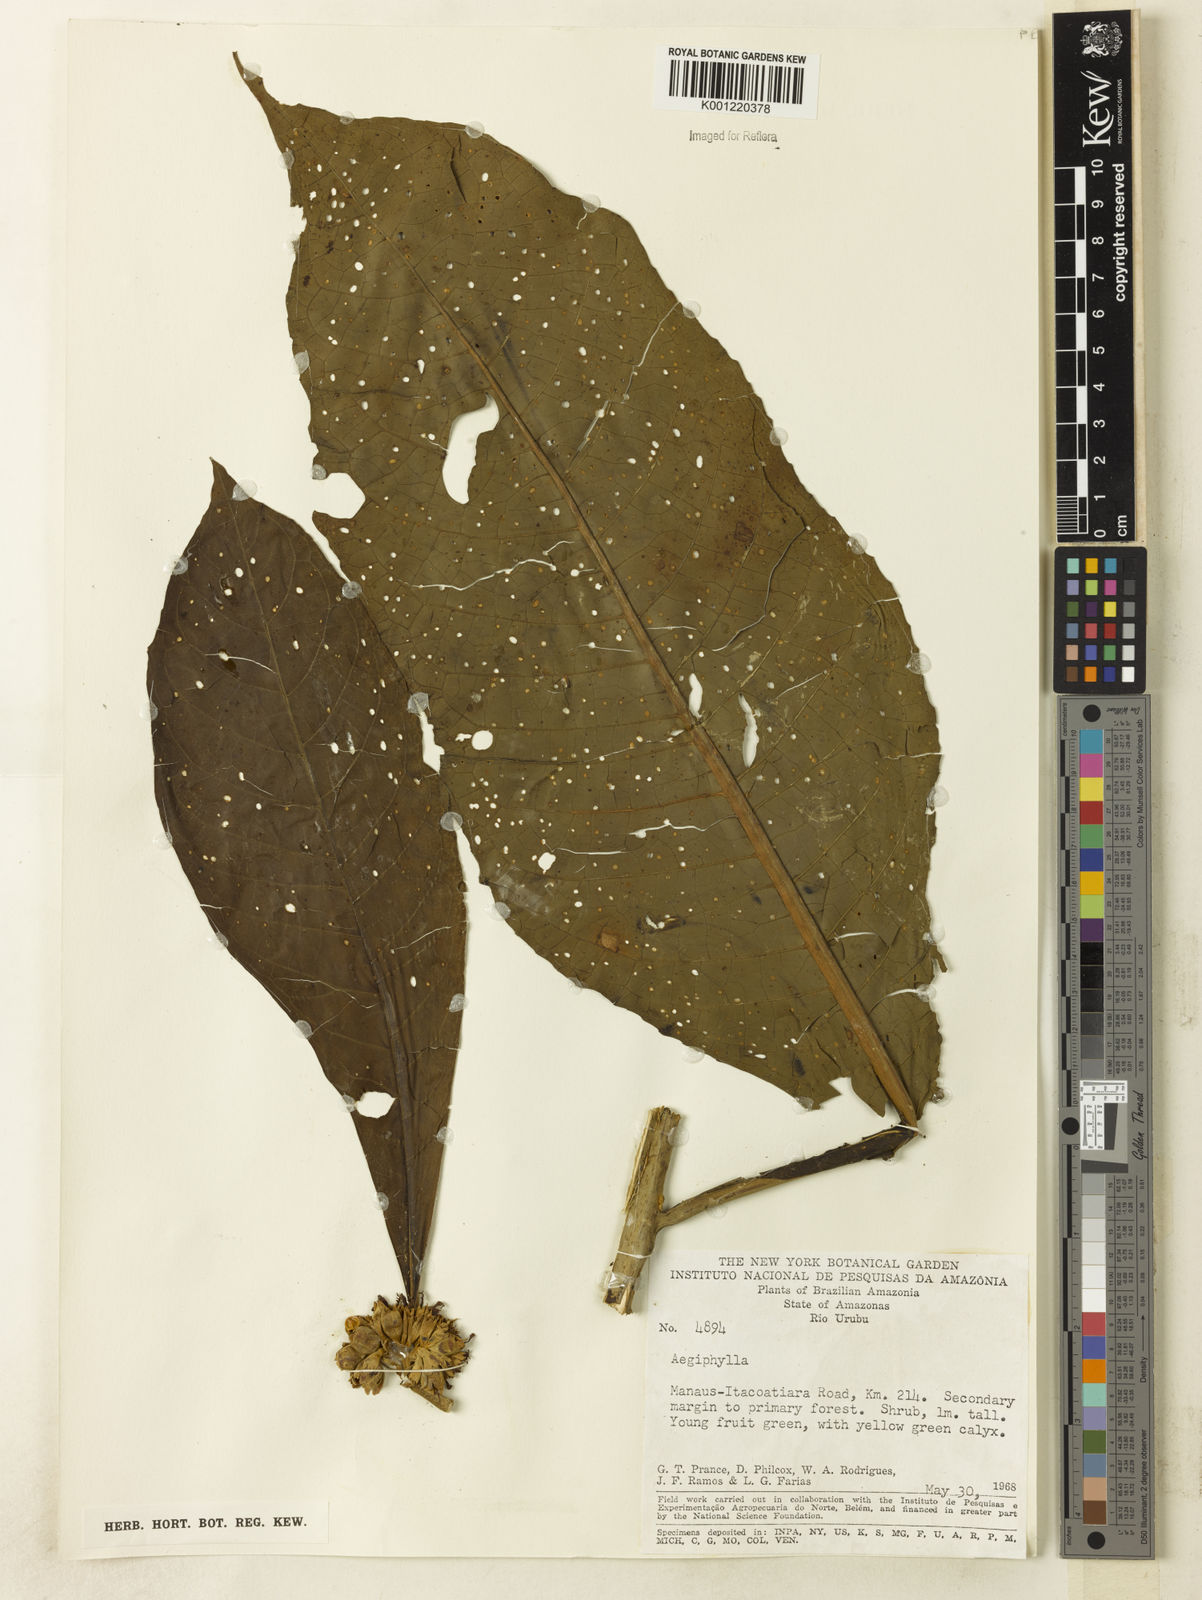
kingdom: Plantae
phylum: Tracheophyta
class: Magnoliopsida
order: Lamiales
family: Lamiaceae
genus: Aegiphila
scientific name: Aegiphila
